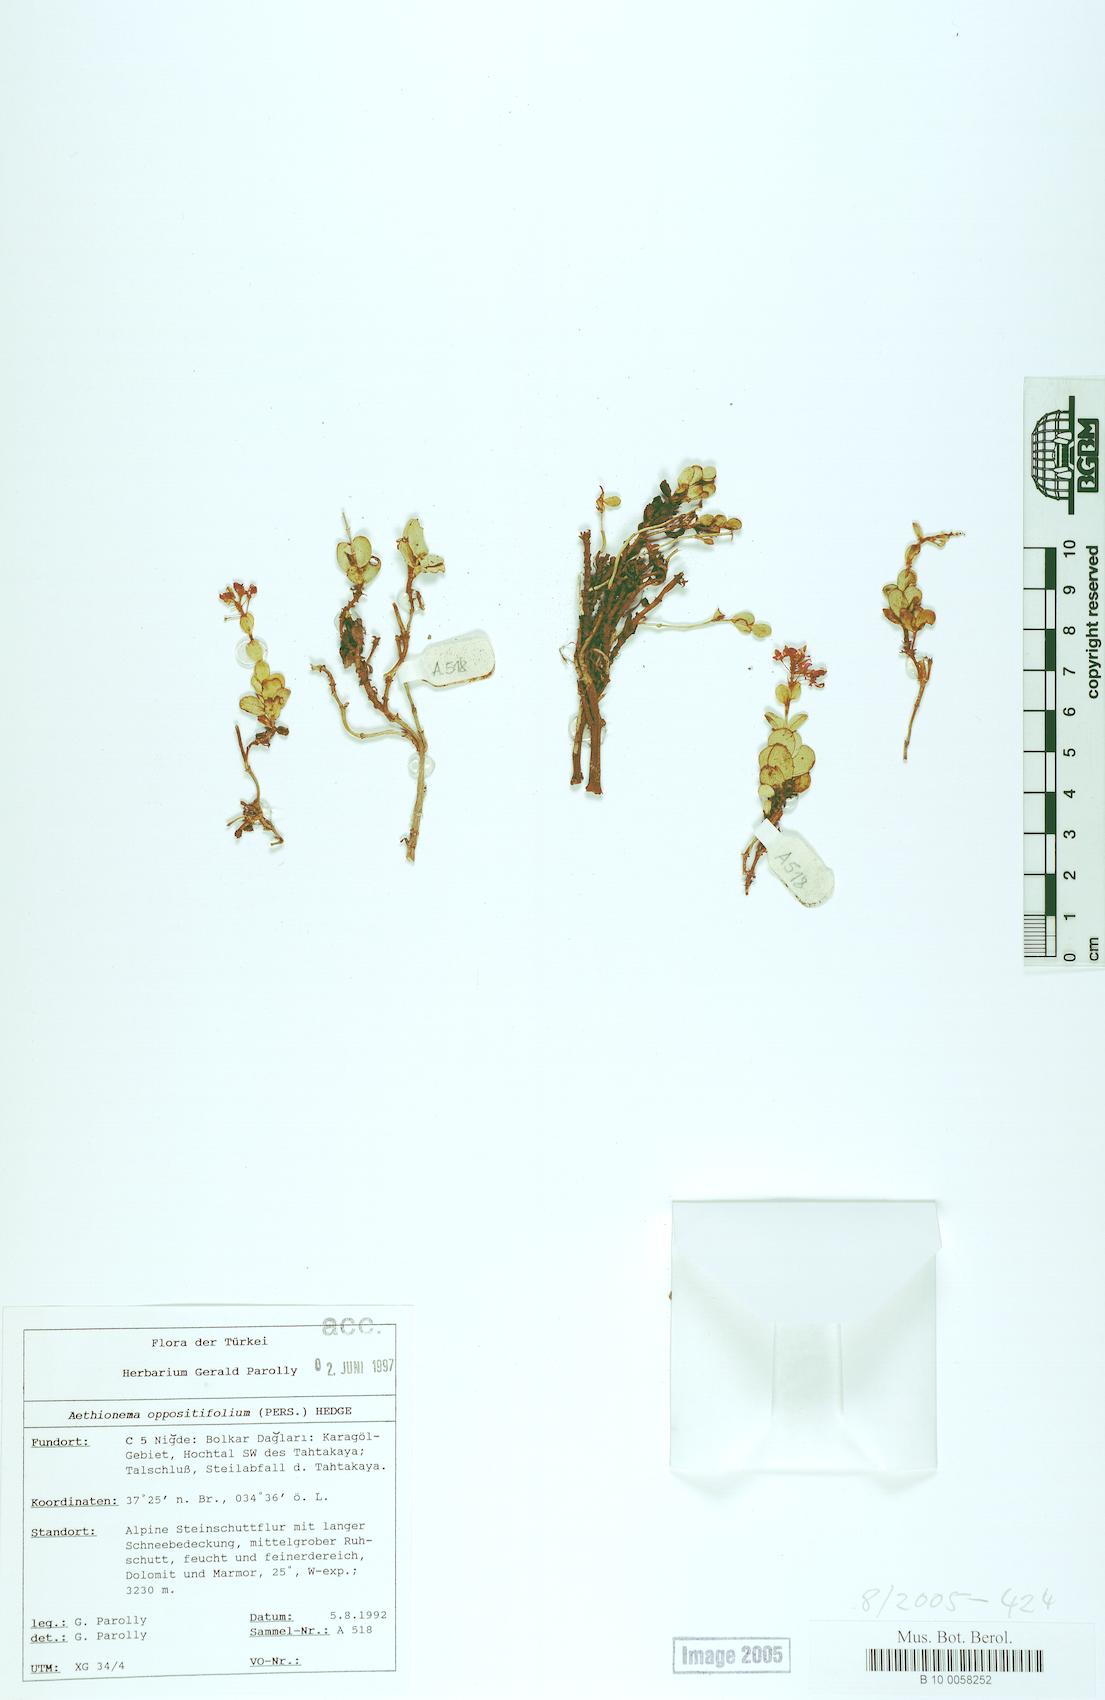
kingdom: Plantae
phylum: Tracheophyta
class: Magnoliopsida
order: Brassicales
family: Brassicaceae
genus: Noccaea
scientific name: Noccaea oppositifolia
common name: Twin-leaf stone-cress
